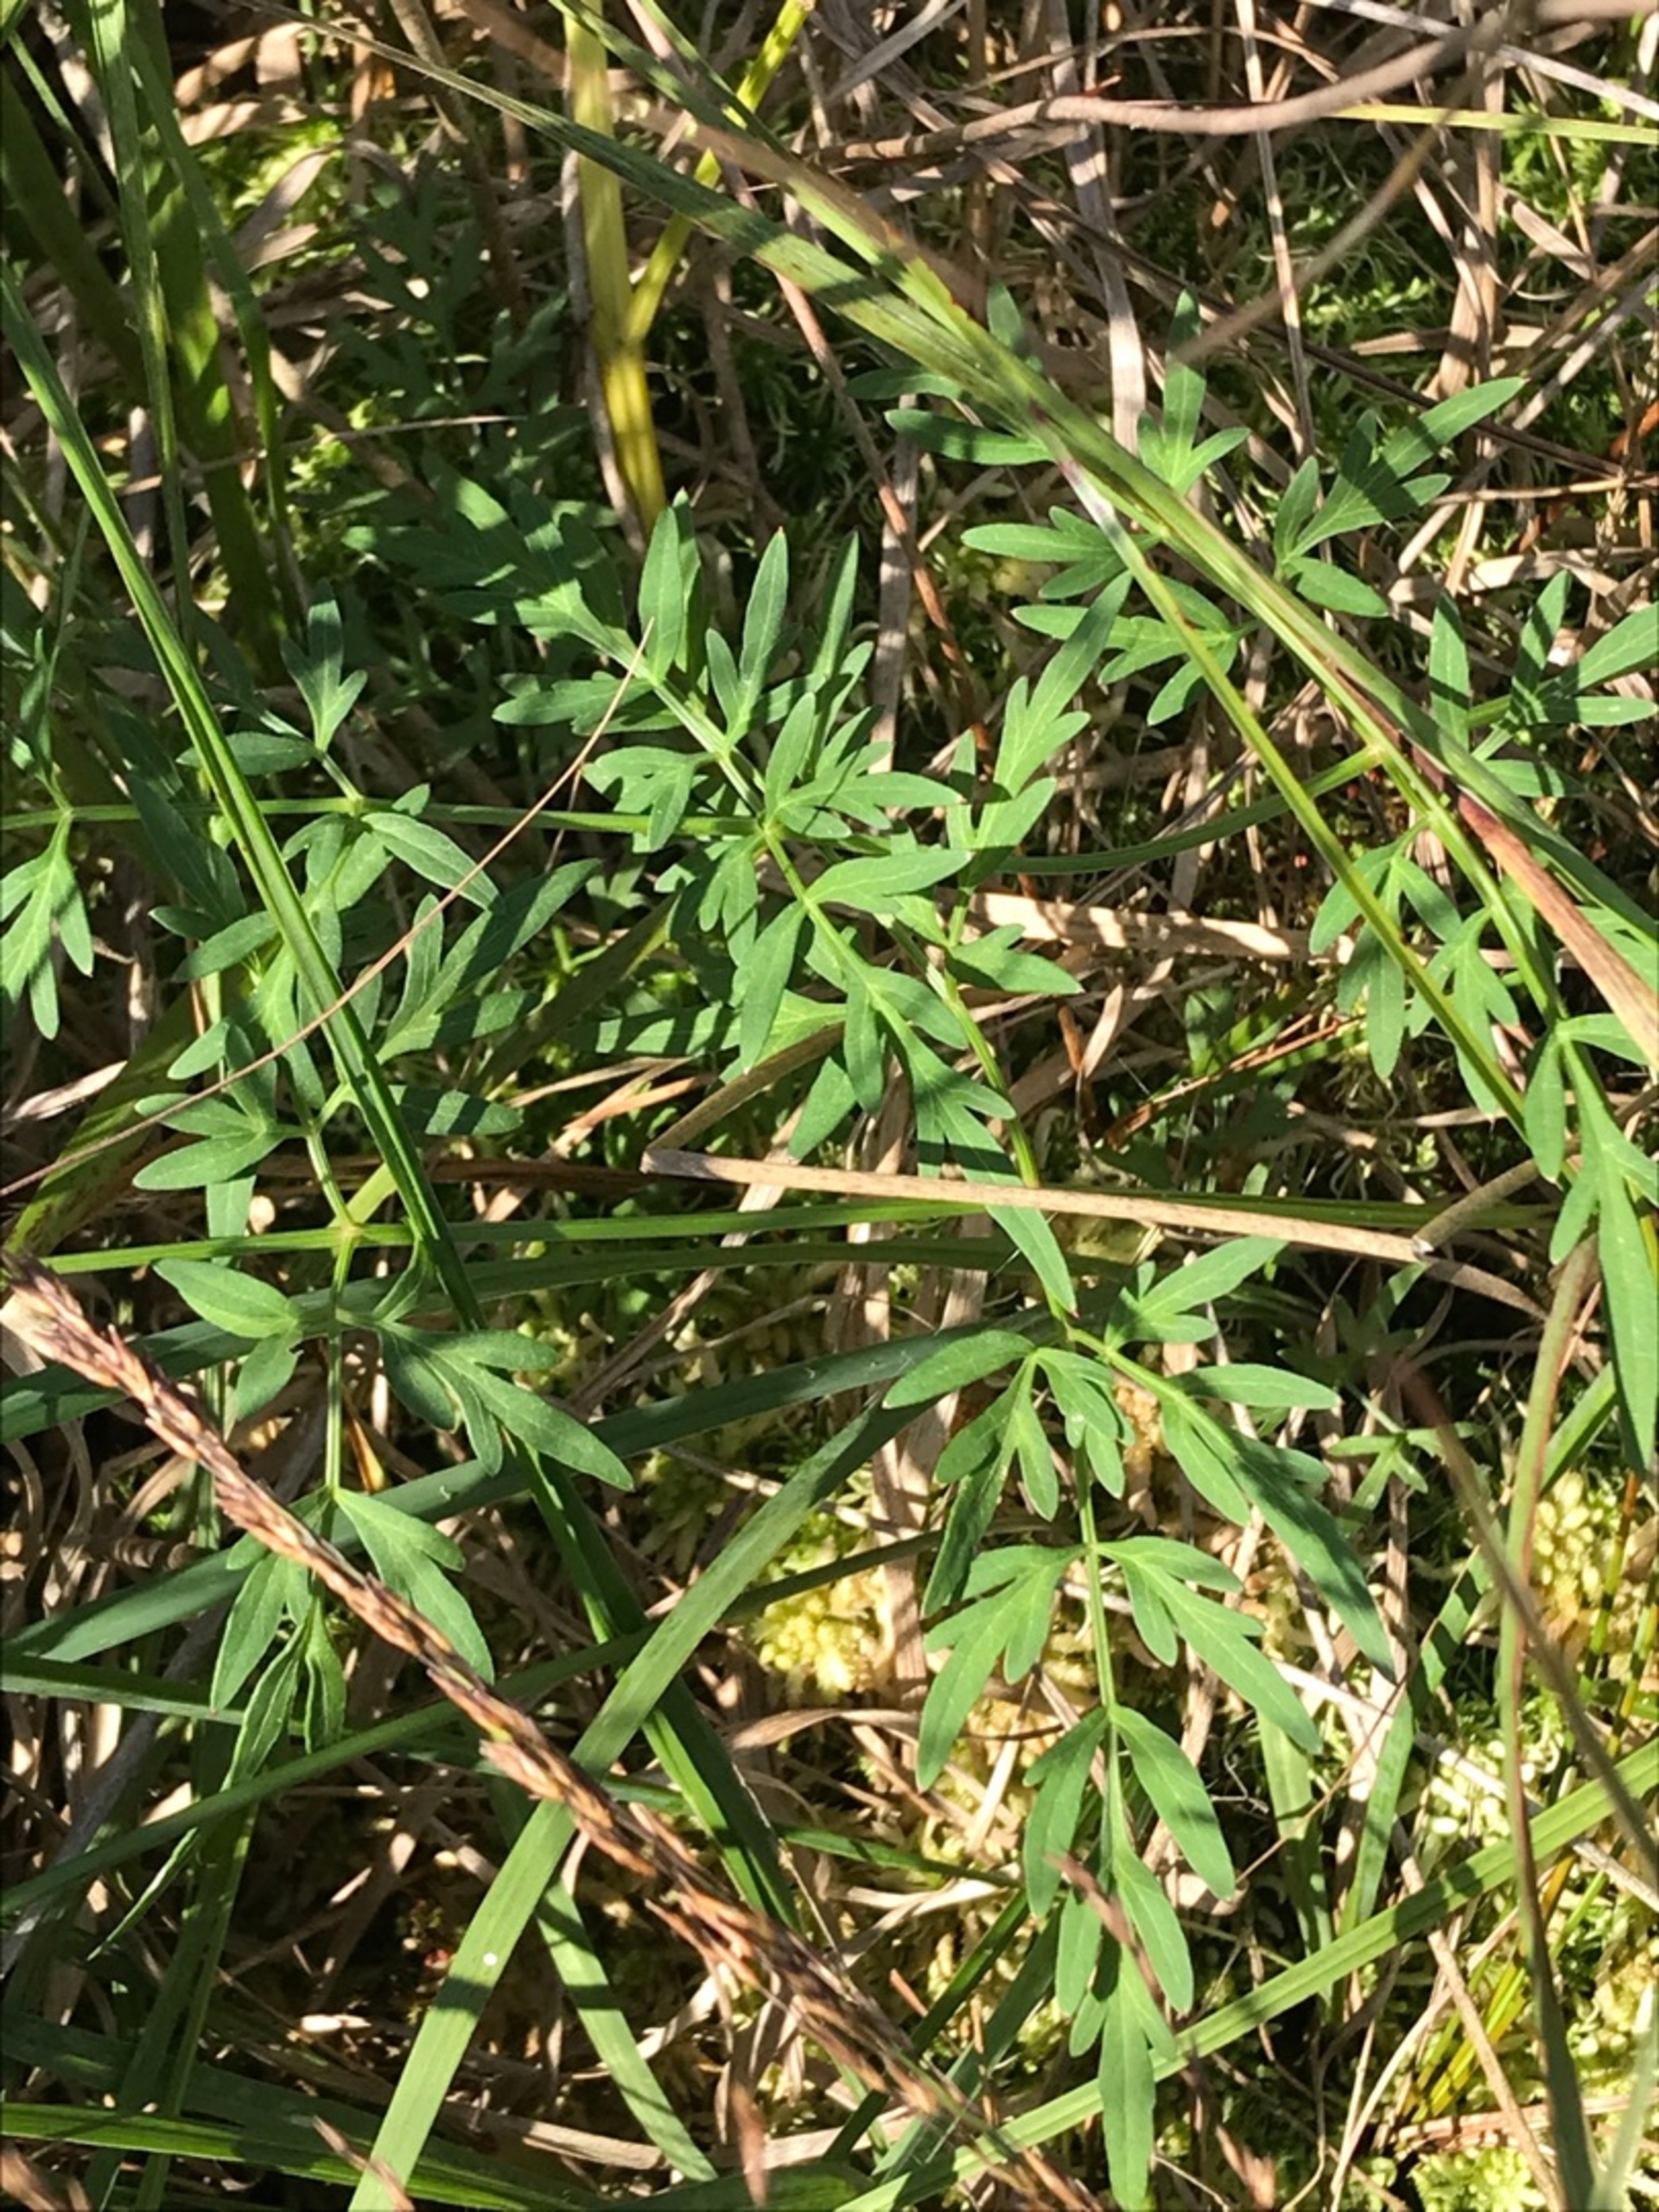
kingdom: Plantae
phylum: Tracheophyta
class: Magnoliopsida
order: Apiales
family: Apiaceae
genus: Thysselinum
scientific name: Thysselinum palustre
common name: Kær-svovlrod
